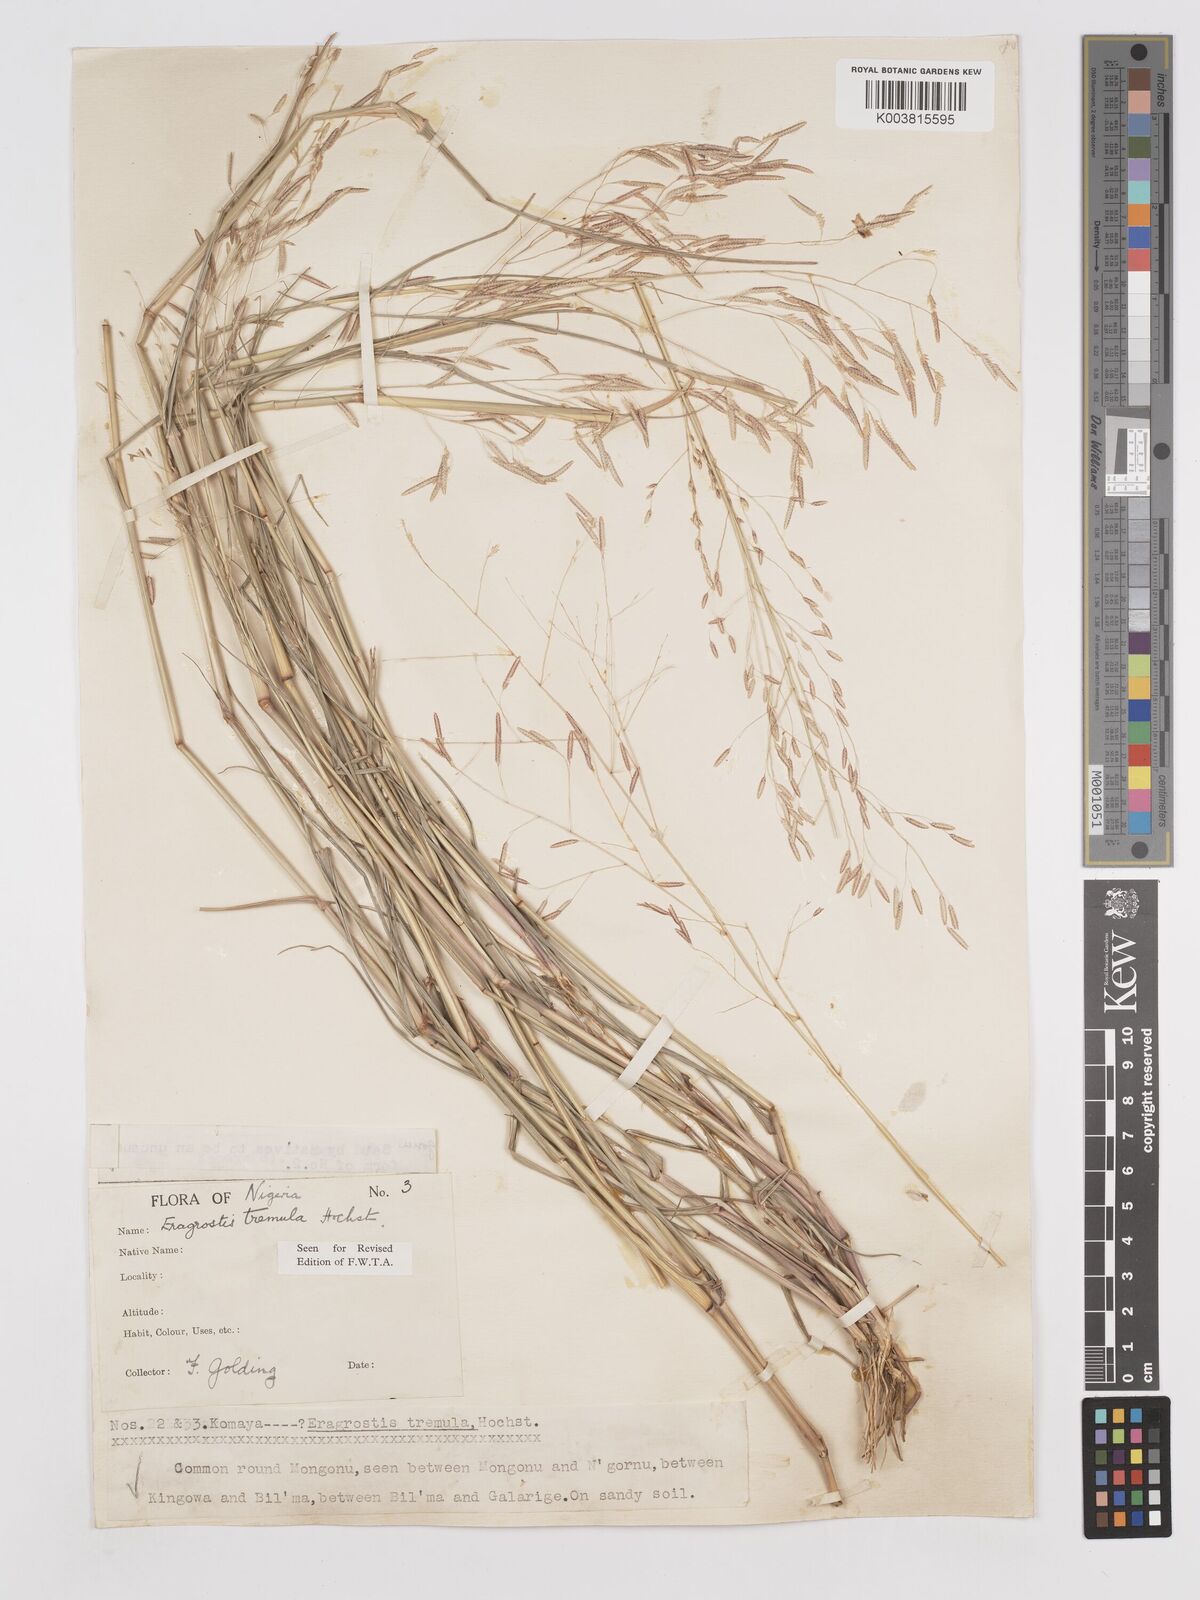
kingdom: Plantae
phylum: Tracheophyta
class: Liliopsida
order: Poales
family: Poaceae
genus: Eragrostis
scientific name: Eragrostis tremula
